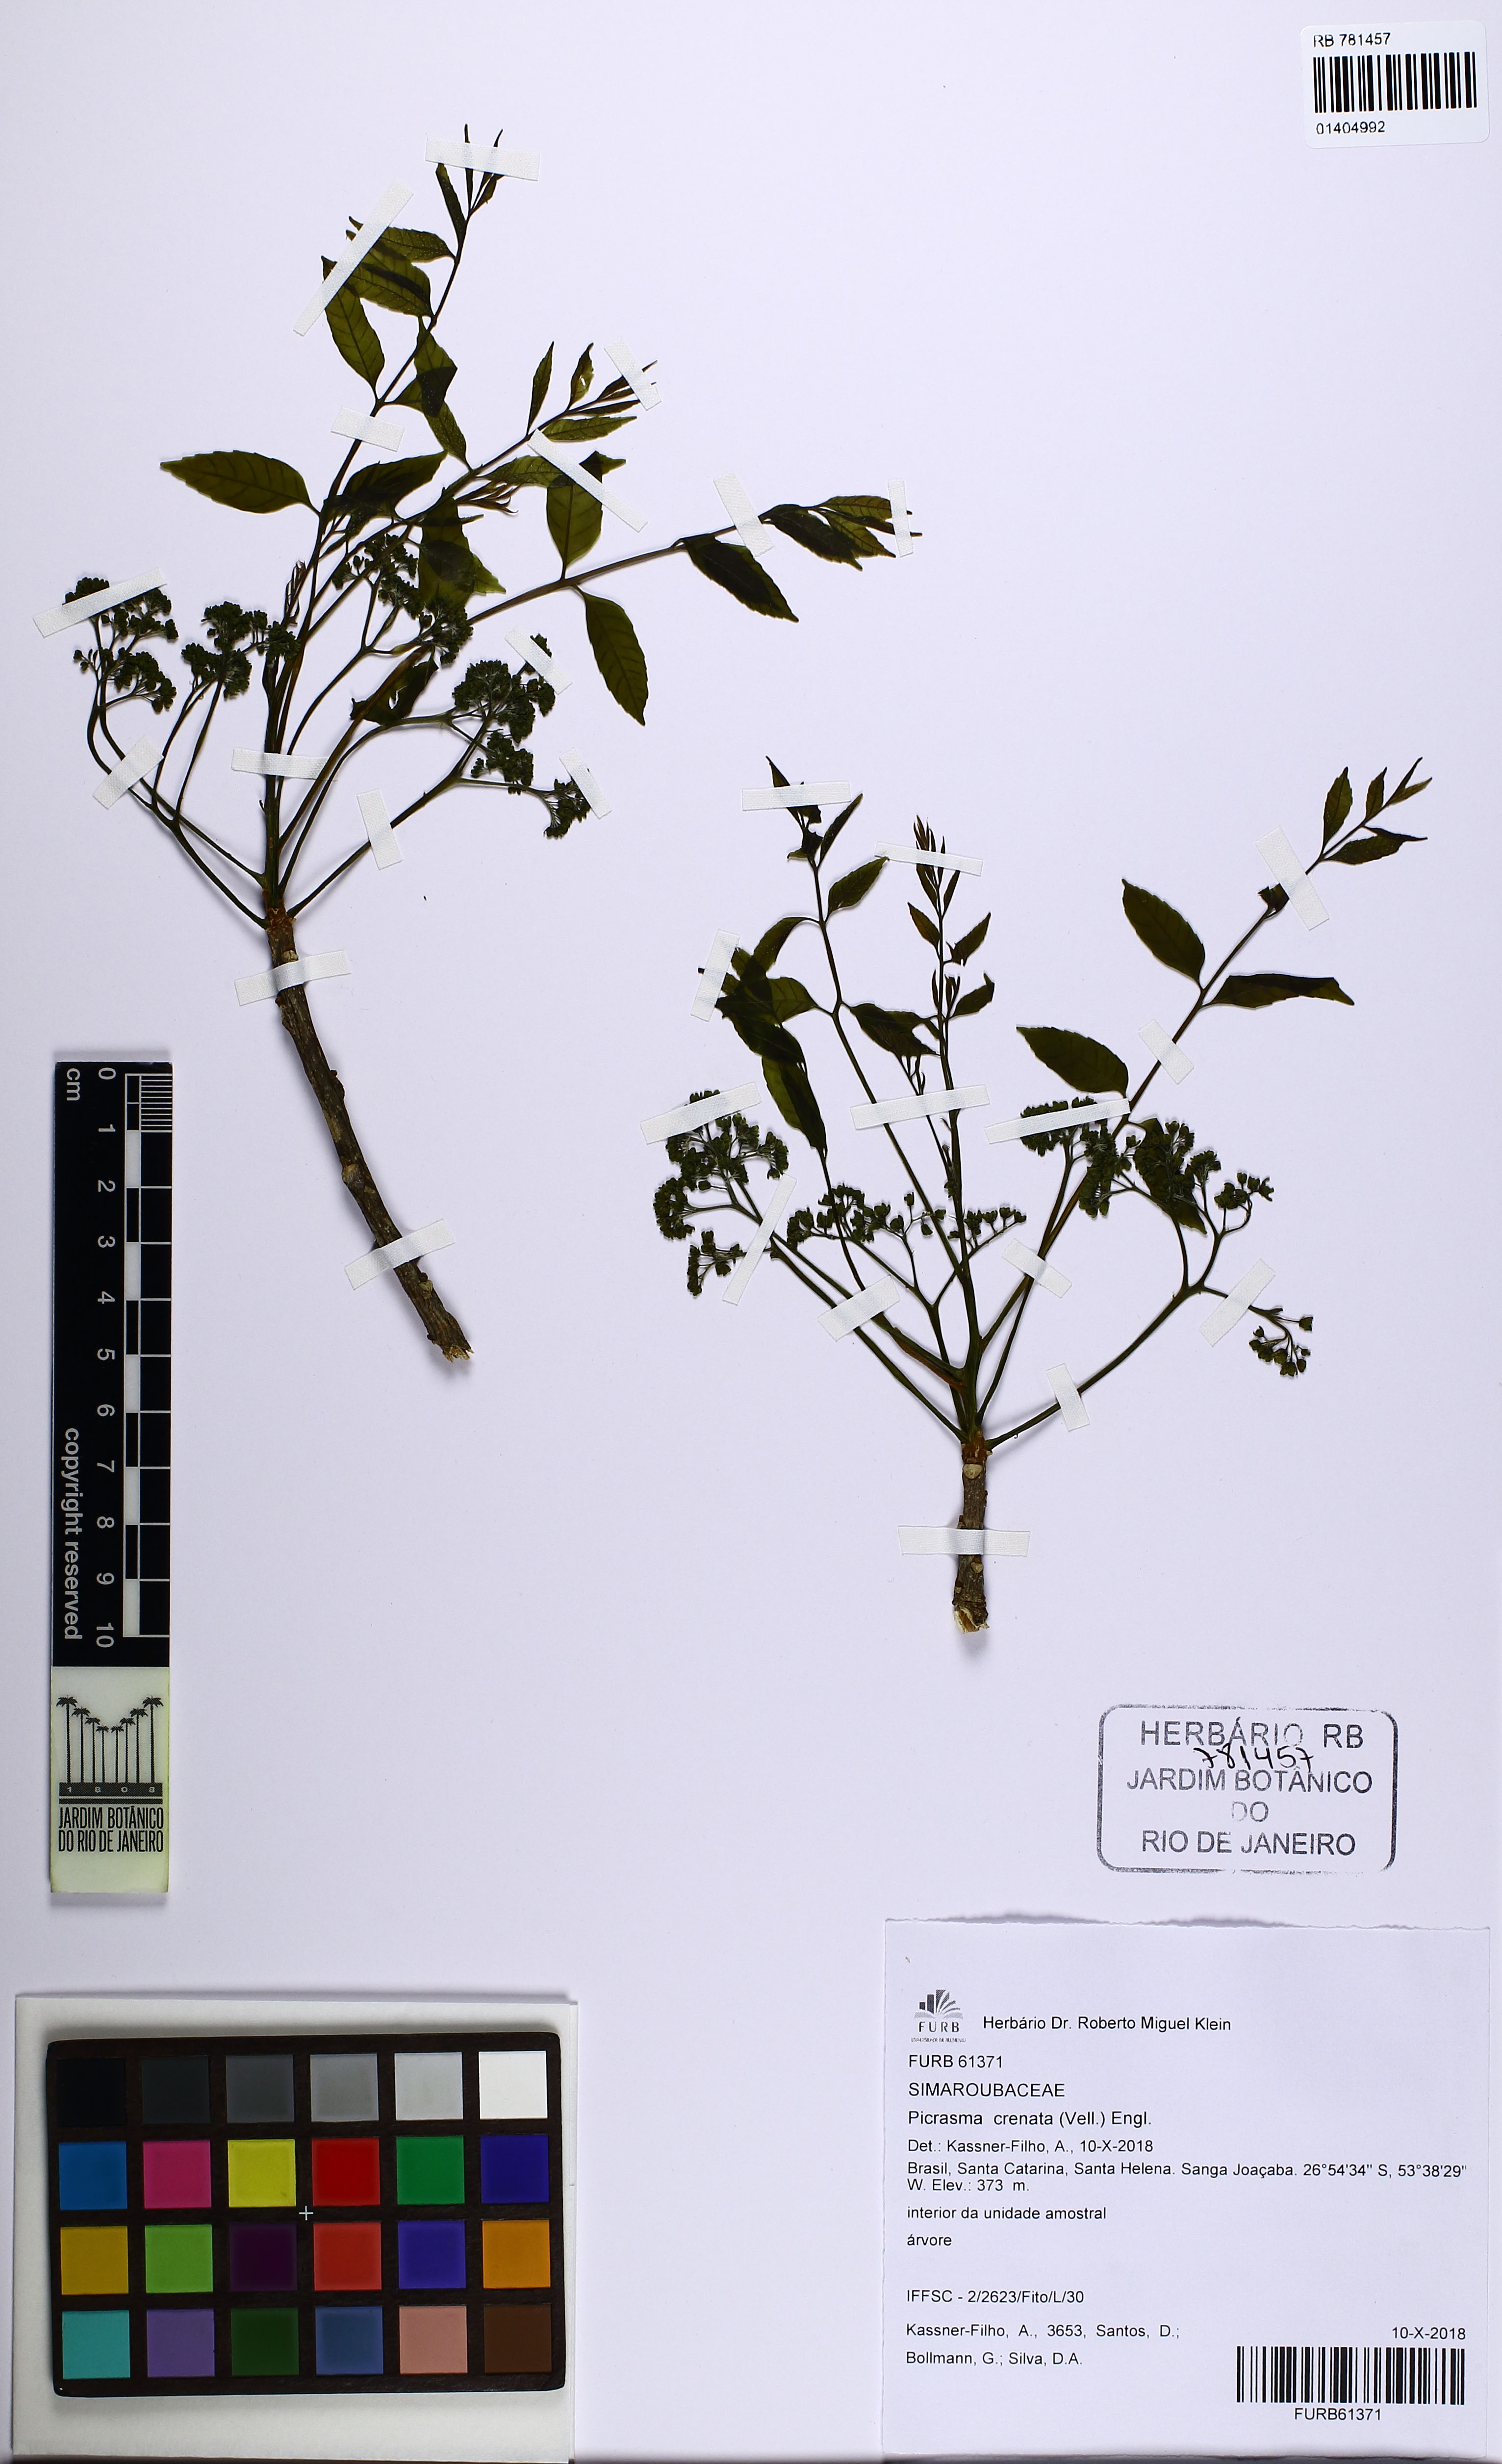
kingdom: Plantae
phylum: Tracheophyta
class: Magnoliopsida
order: Sapindales
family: Simaroubaceae
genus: Picrasma
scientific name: Picrasma crenata
